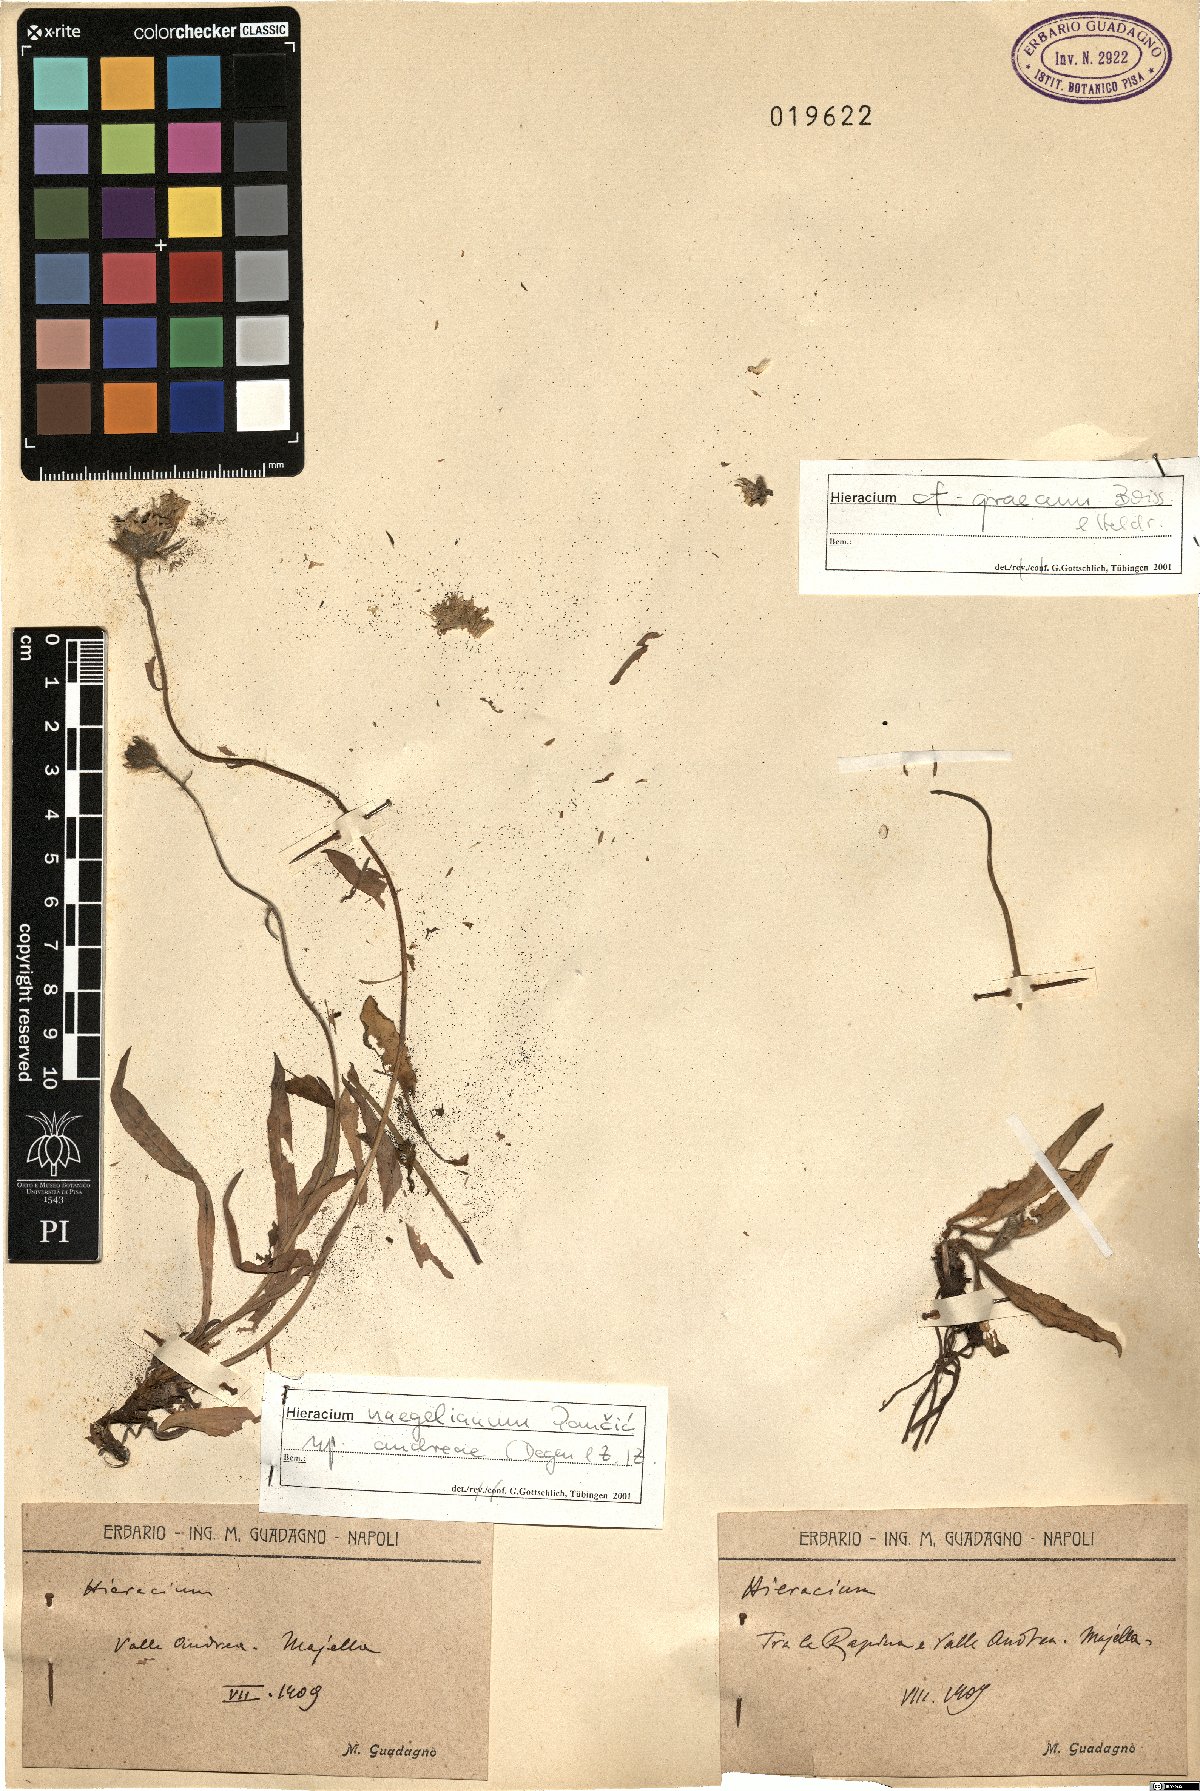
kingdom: Plantae
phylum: Tracheophyta
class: Magnoliopsida
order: Asterales
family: Asteraceae
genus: Hieracium
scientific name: Hieracium graecum
